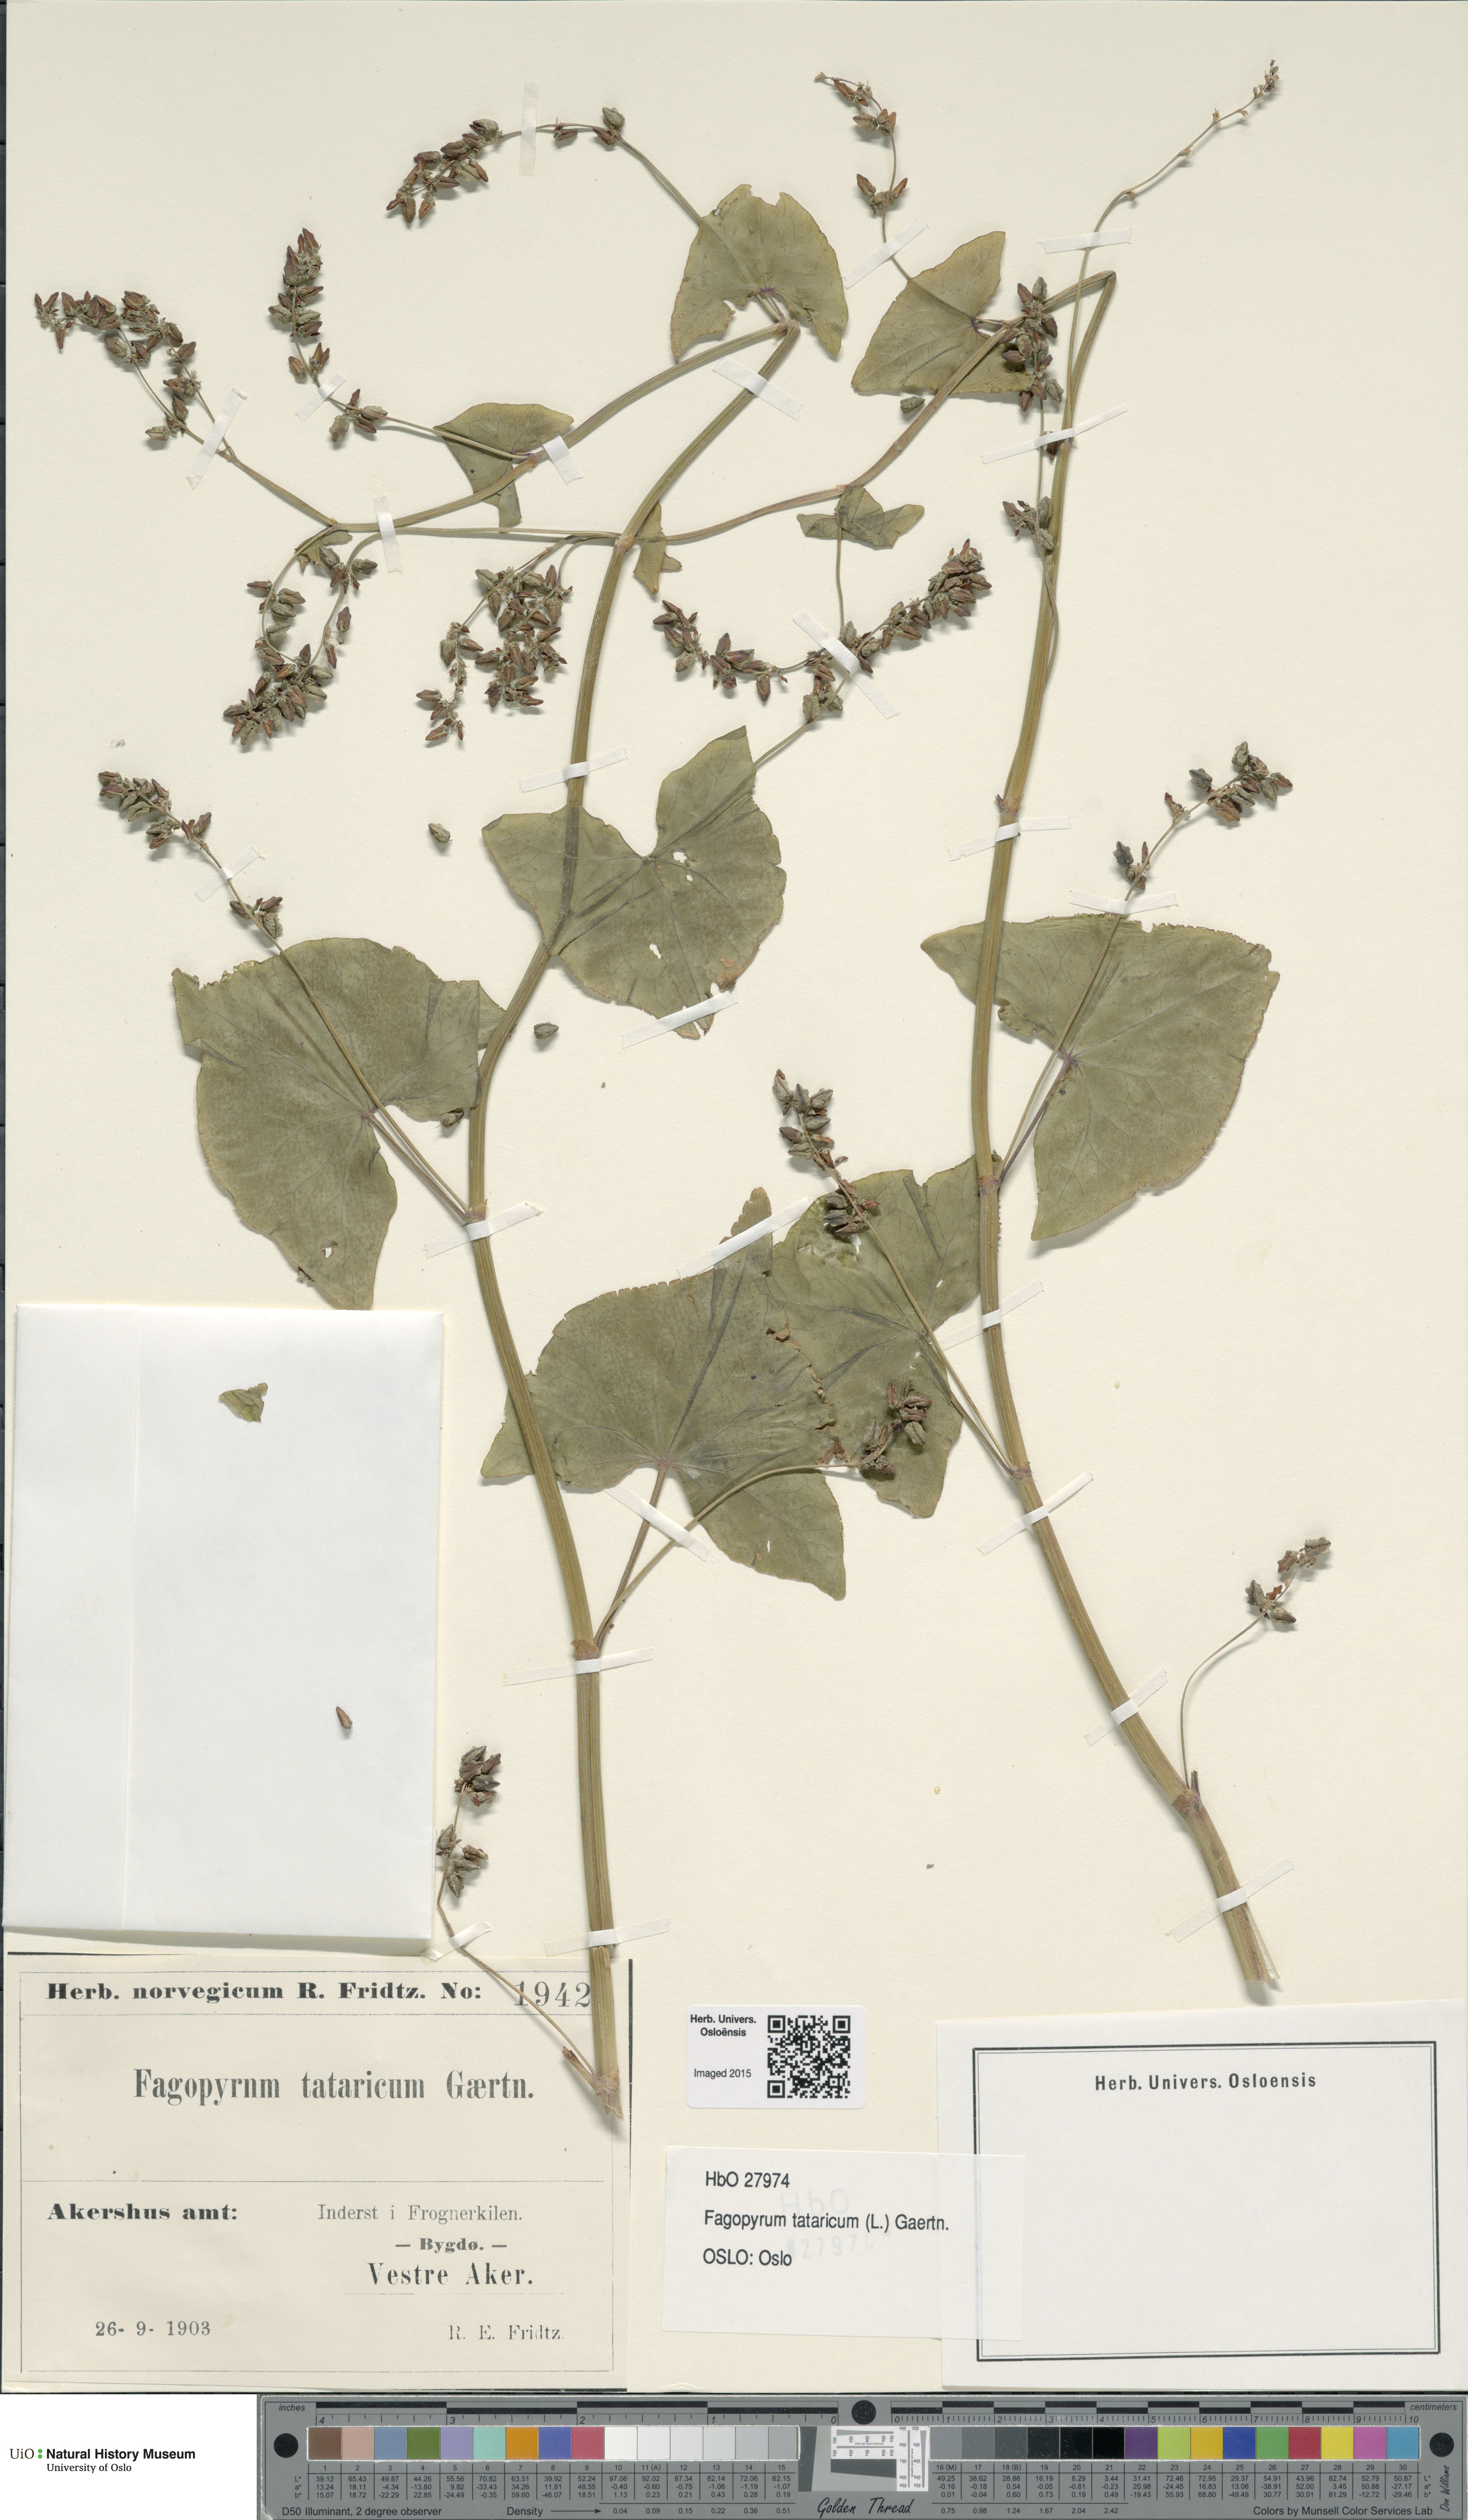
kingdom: Plantae
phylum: Tracheophyta
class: Magnoliopsida
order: Caryophyllales
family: Polygonaceae
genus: Fagopyrum
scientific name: Fagopyrum tataricum
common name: Green buckwheat
